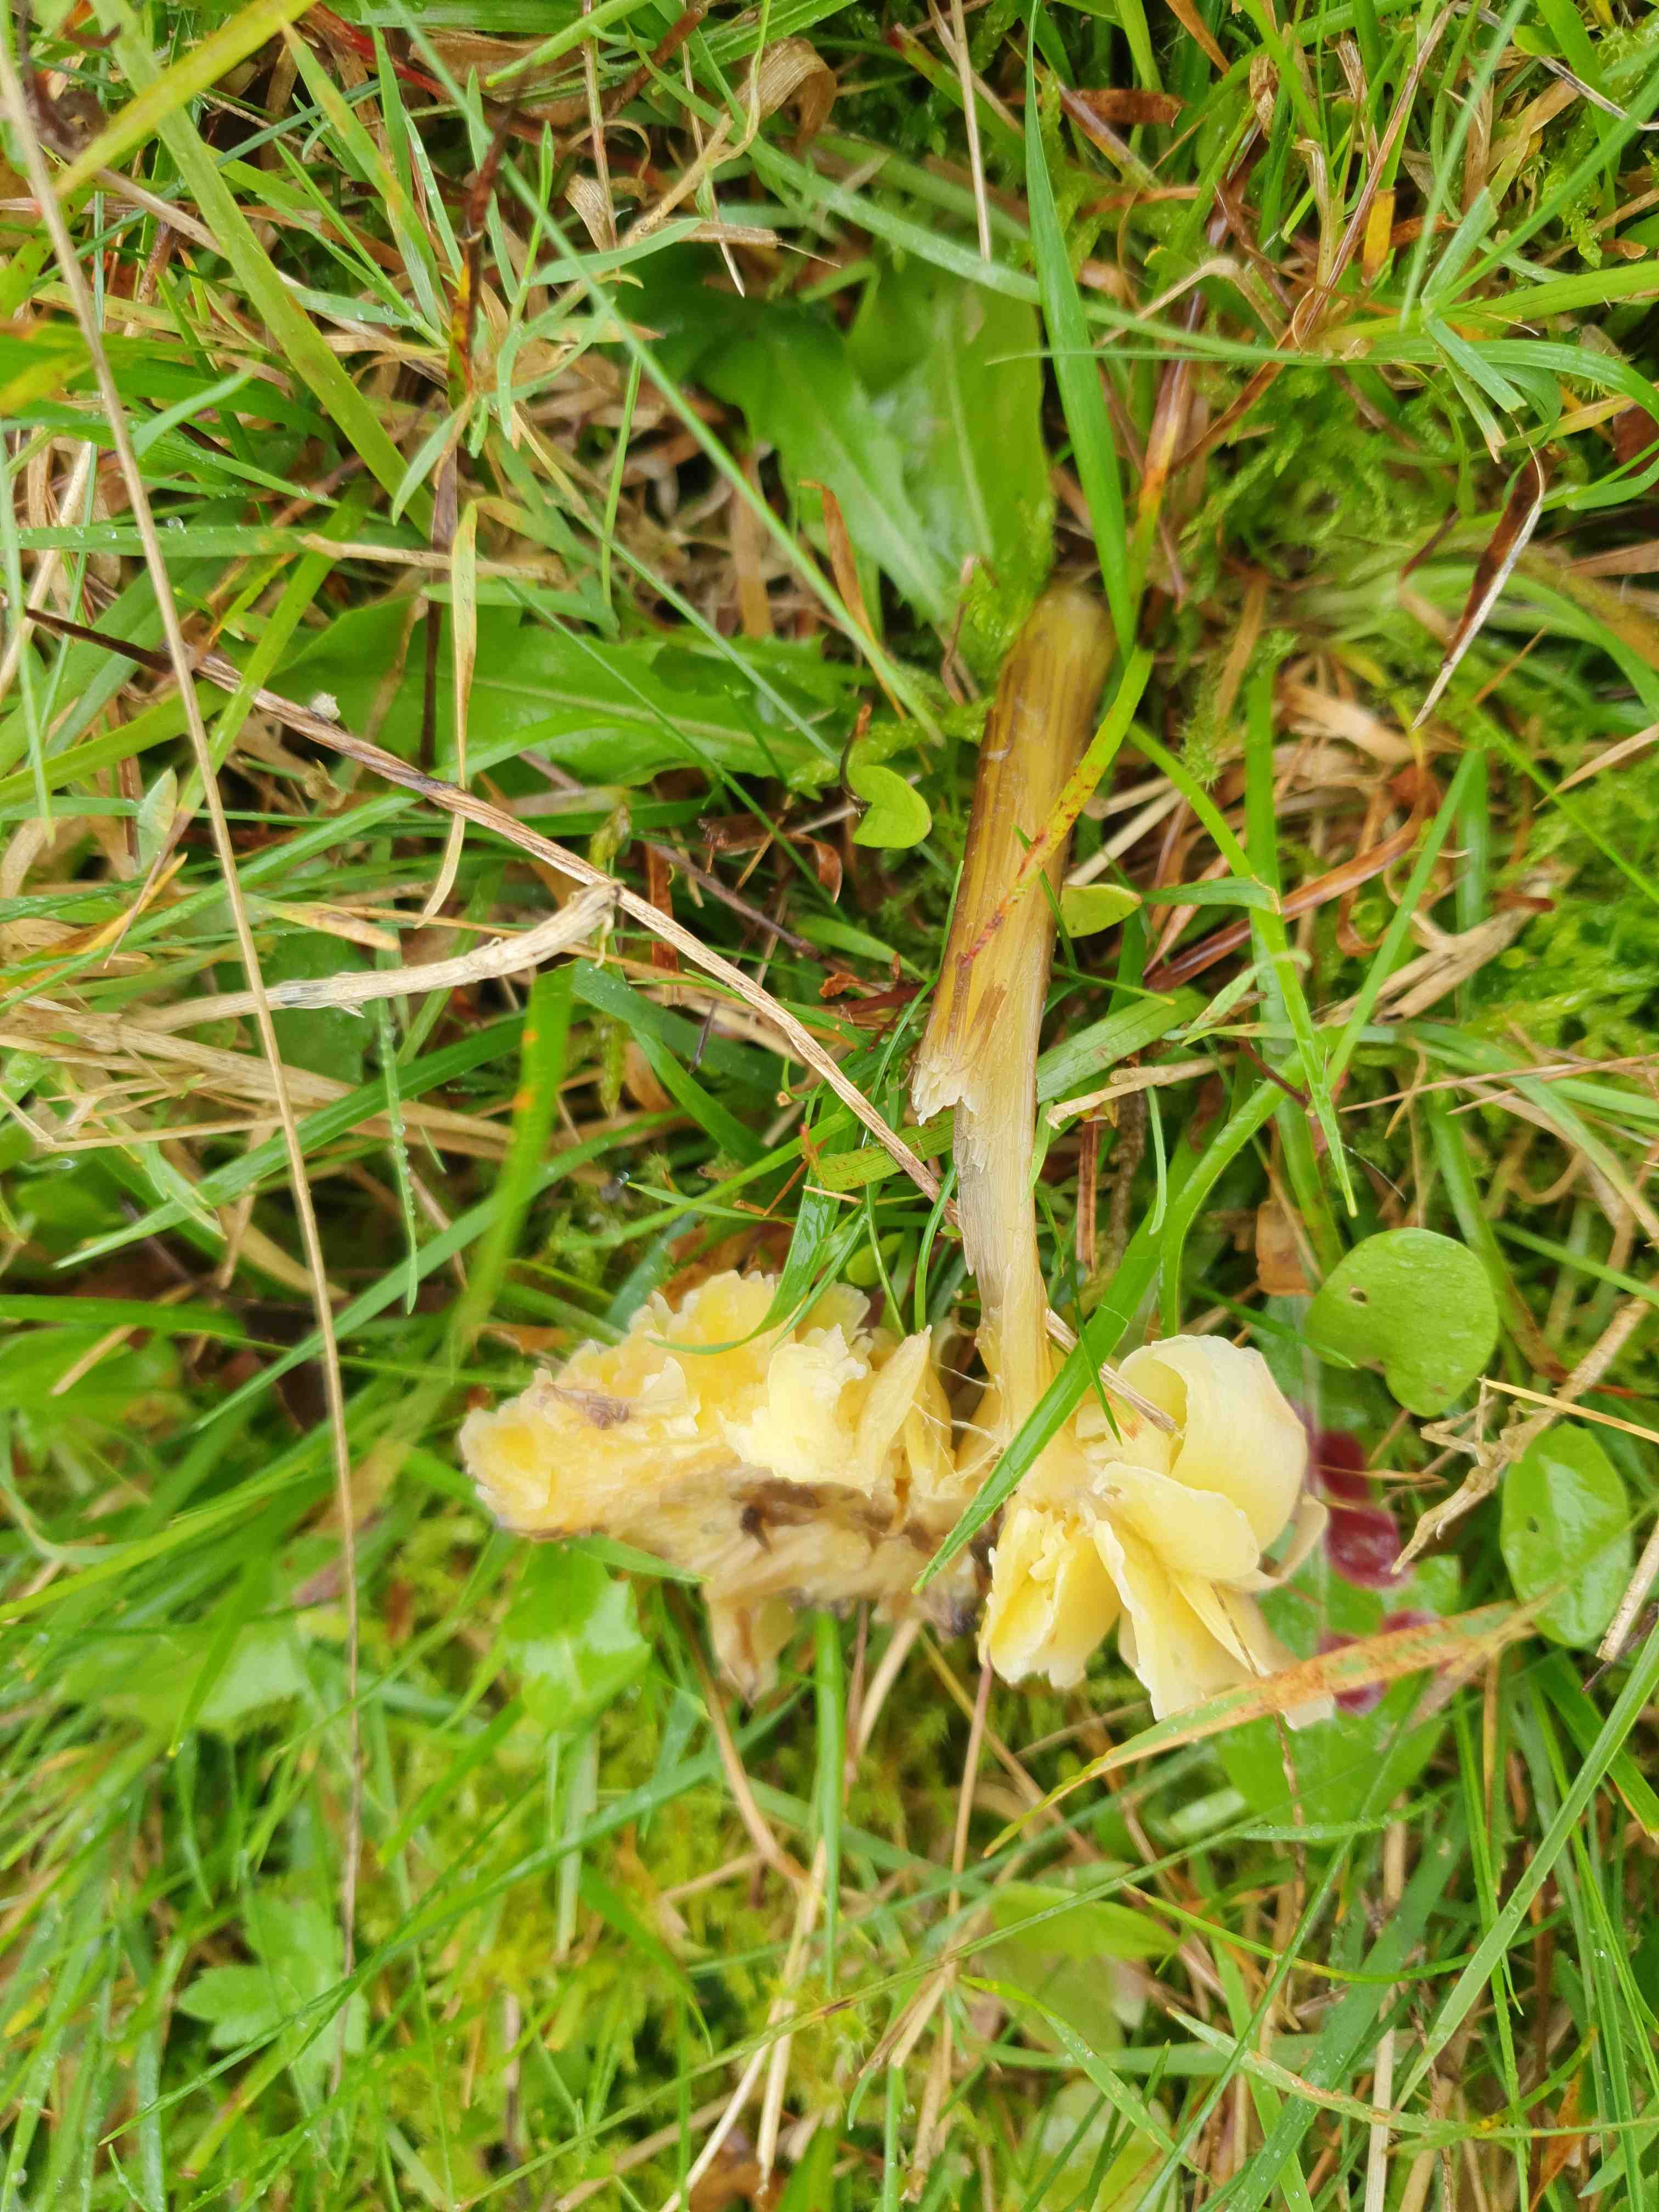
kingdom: Fungi
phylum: Basidiomycota
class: Agaricomycetes
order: Agaricales
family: Hygrophoraceae
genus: Hygrocybe
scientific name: Hygrocybe spadicea
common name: daddelbrun vokshat
